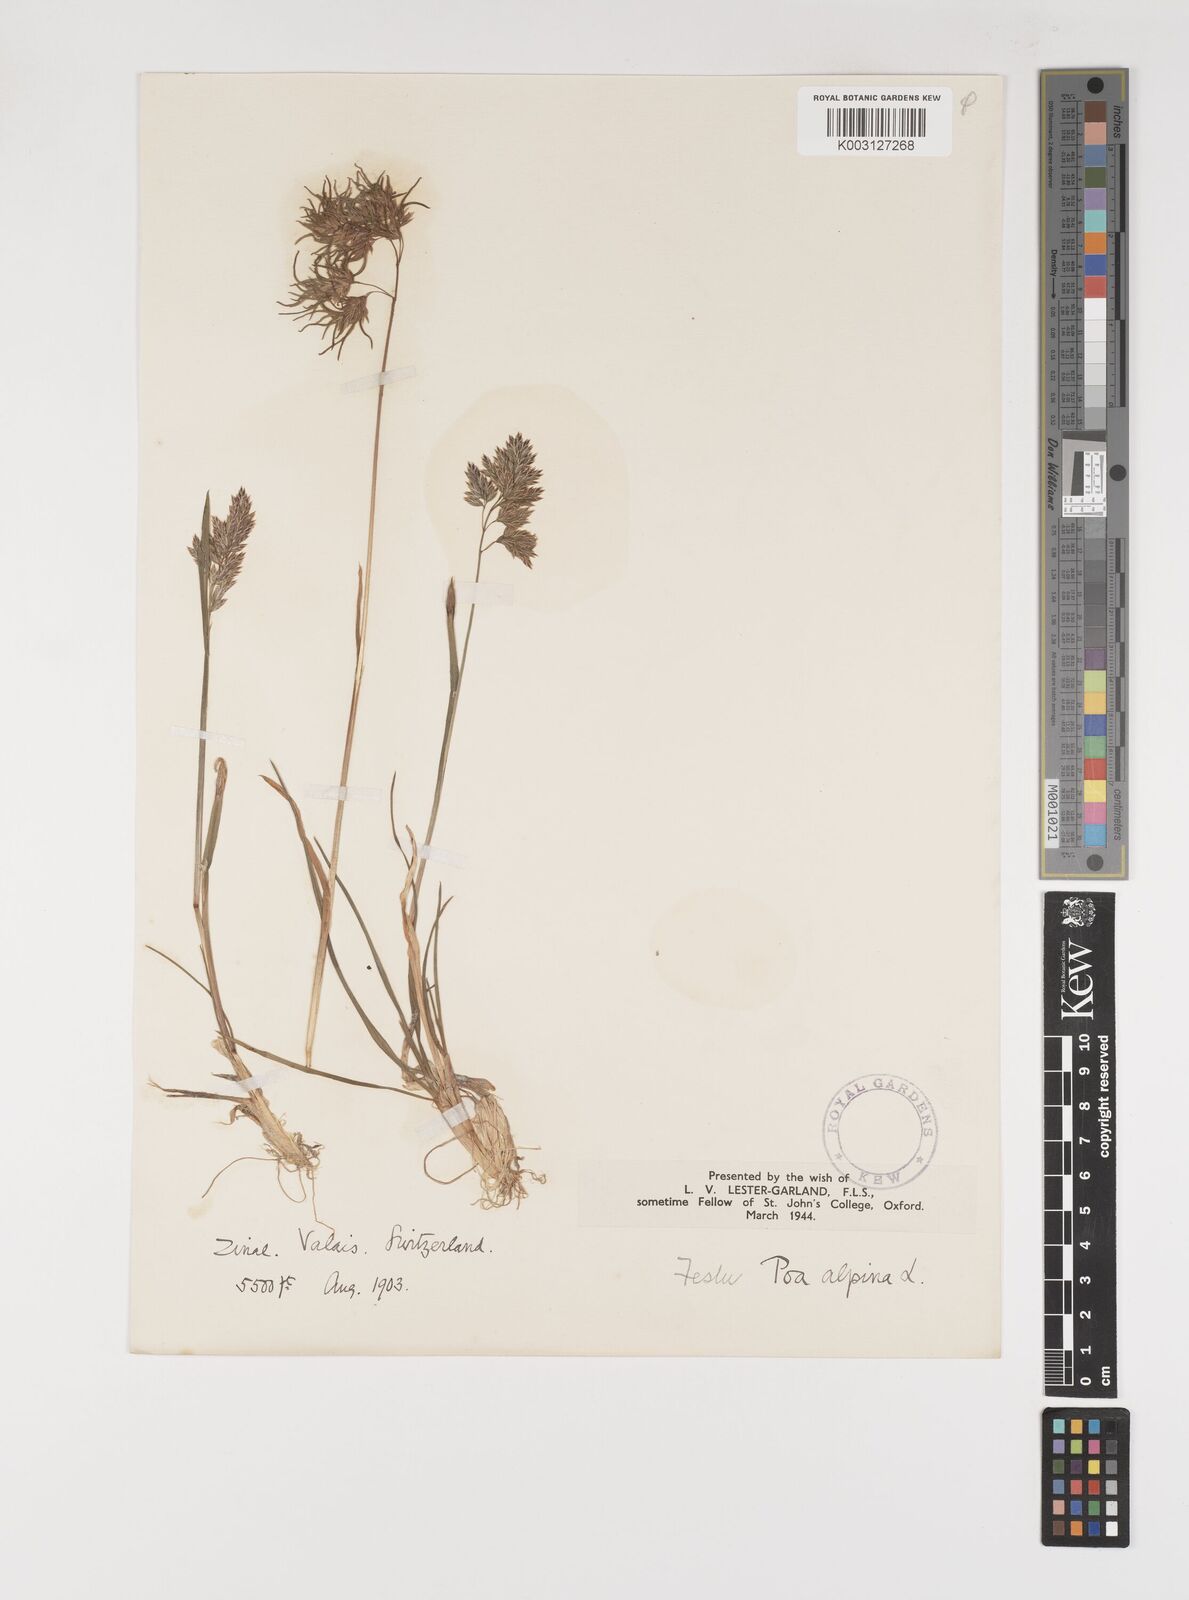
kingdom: Plantae
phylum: Tracheophyta
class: Liliopsida
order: Poales
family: Poaceae
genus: Poa
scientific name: Poa alpina
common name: Alpine bluegrass
